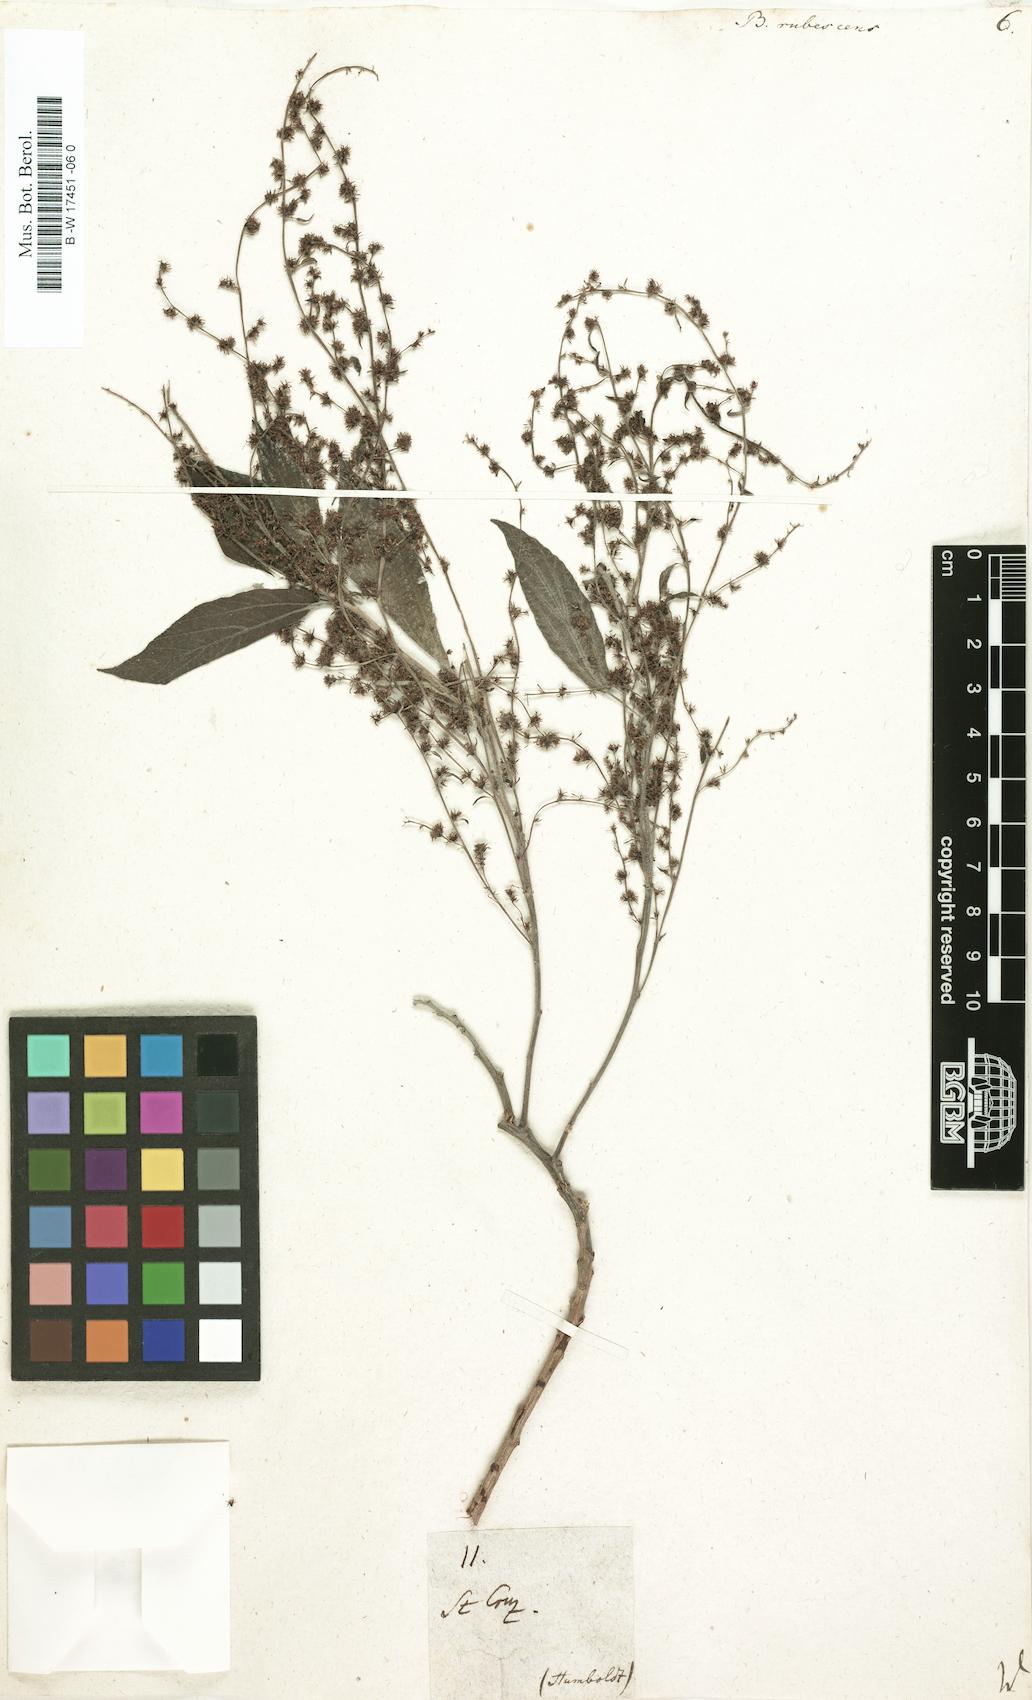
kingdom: Plantae
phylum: Tracheophyta
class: Magnoliopsida
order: Rosales
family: Urticaceae
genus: Gesnouinia
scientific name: Gesnouinia arborea
